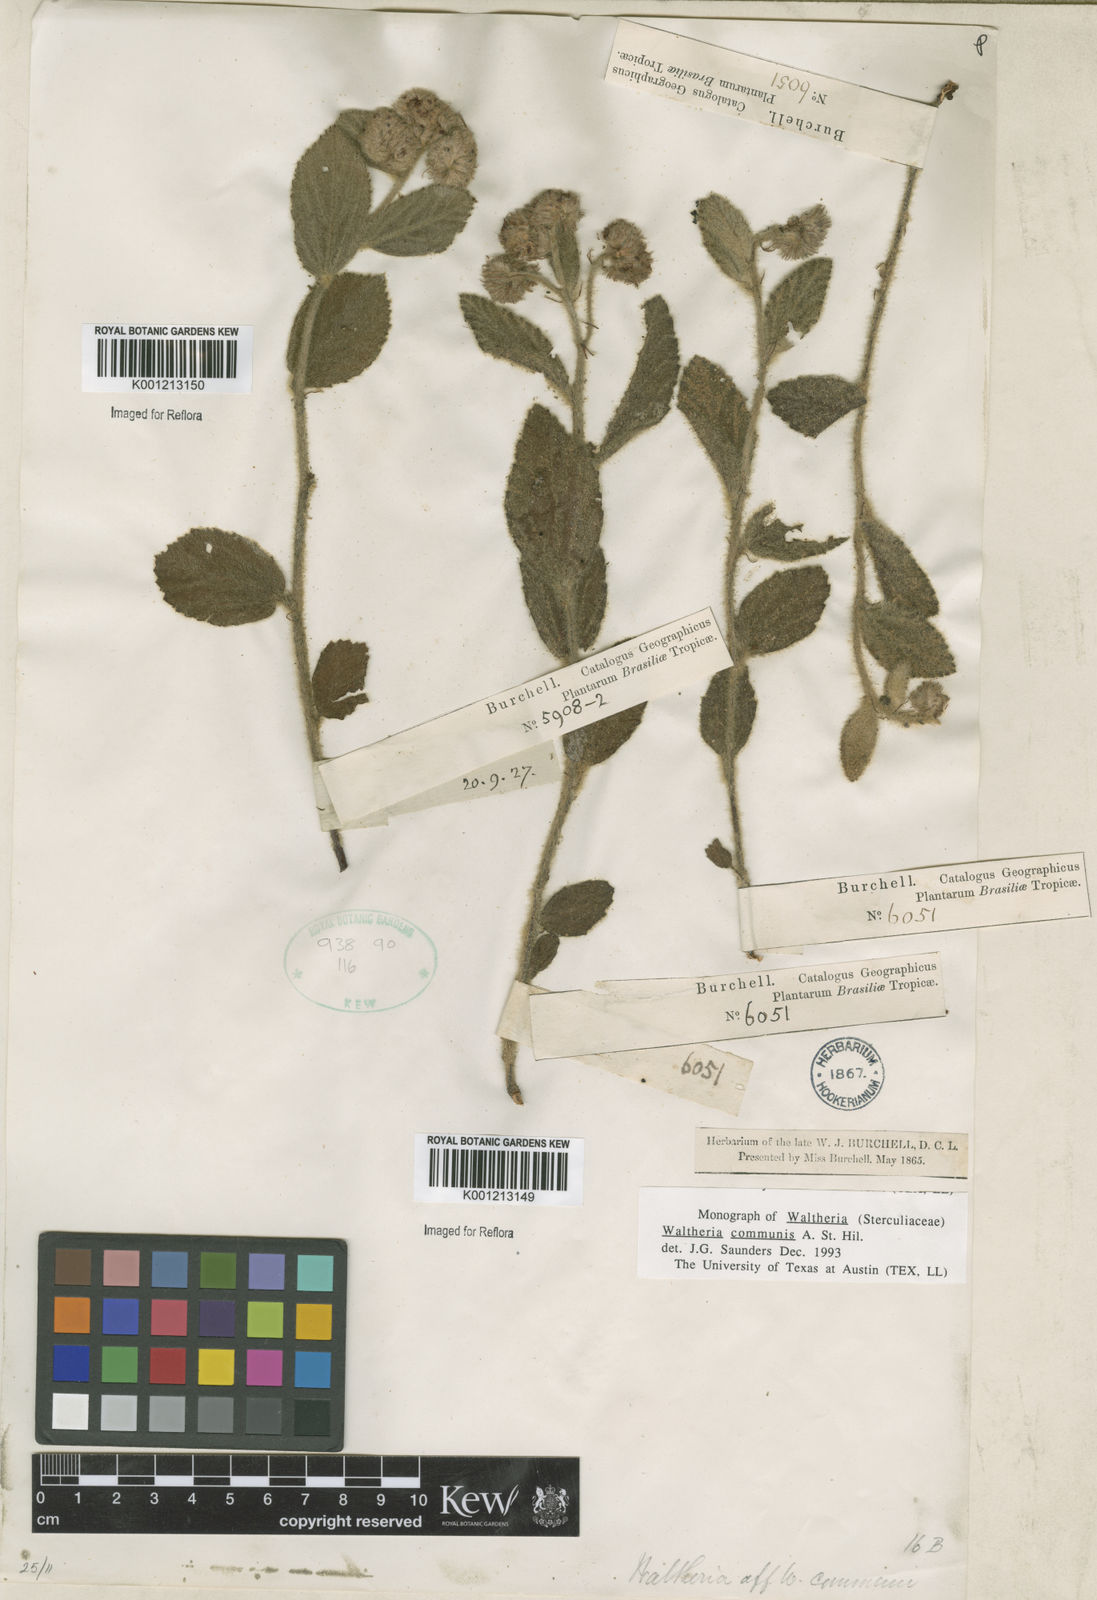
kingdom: Plantae
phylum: Tracheophyta
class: Magnoliopsida
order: Malvales
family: Malvaceae
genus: Waltheria
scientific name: Waltheria communis
